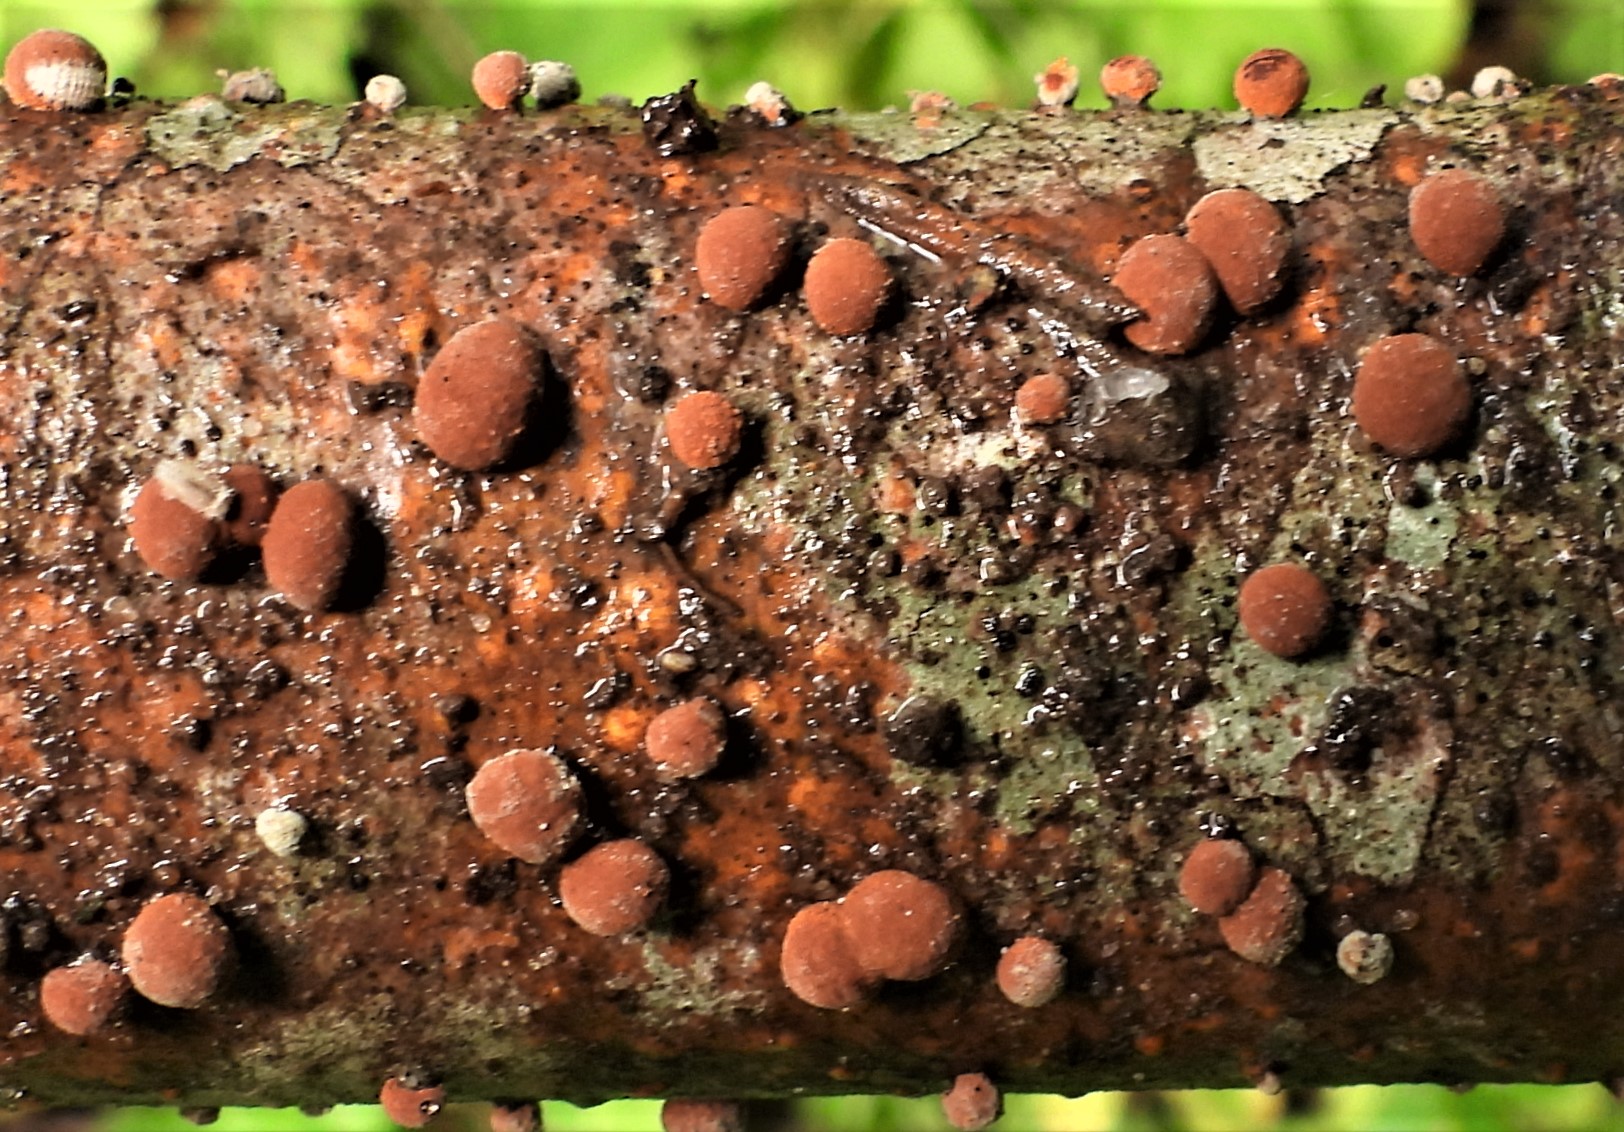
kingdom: Fungi
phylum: Ascomycota
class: Sordariomycetes
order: Xylariales
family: Hypoxylaceae
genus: Hypoxylon
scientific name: Hypoxylon fragiforme
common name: kuljordbær
